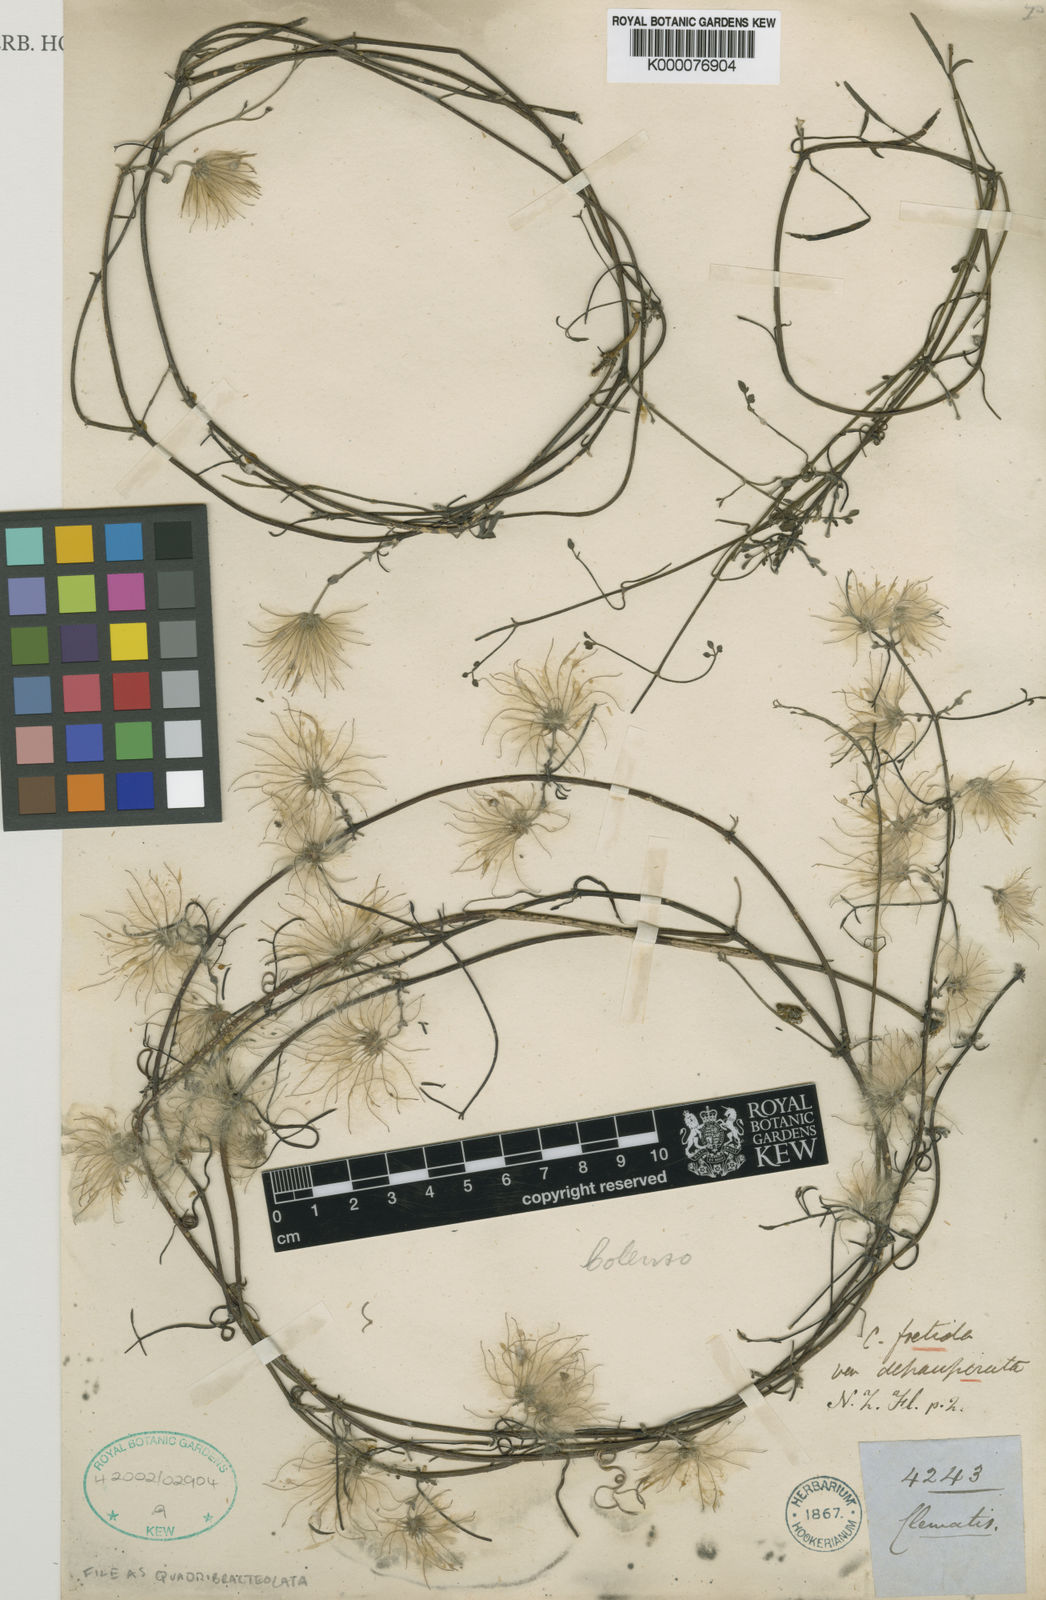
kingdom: Plantae
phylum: Tracheophyta
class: Magnoliopsida
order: Ranunculales
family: Ranunculaceae
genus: Clematis
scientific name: Clematis quadribracteolata
